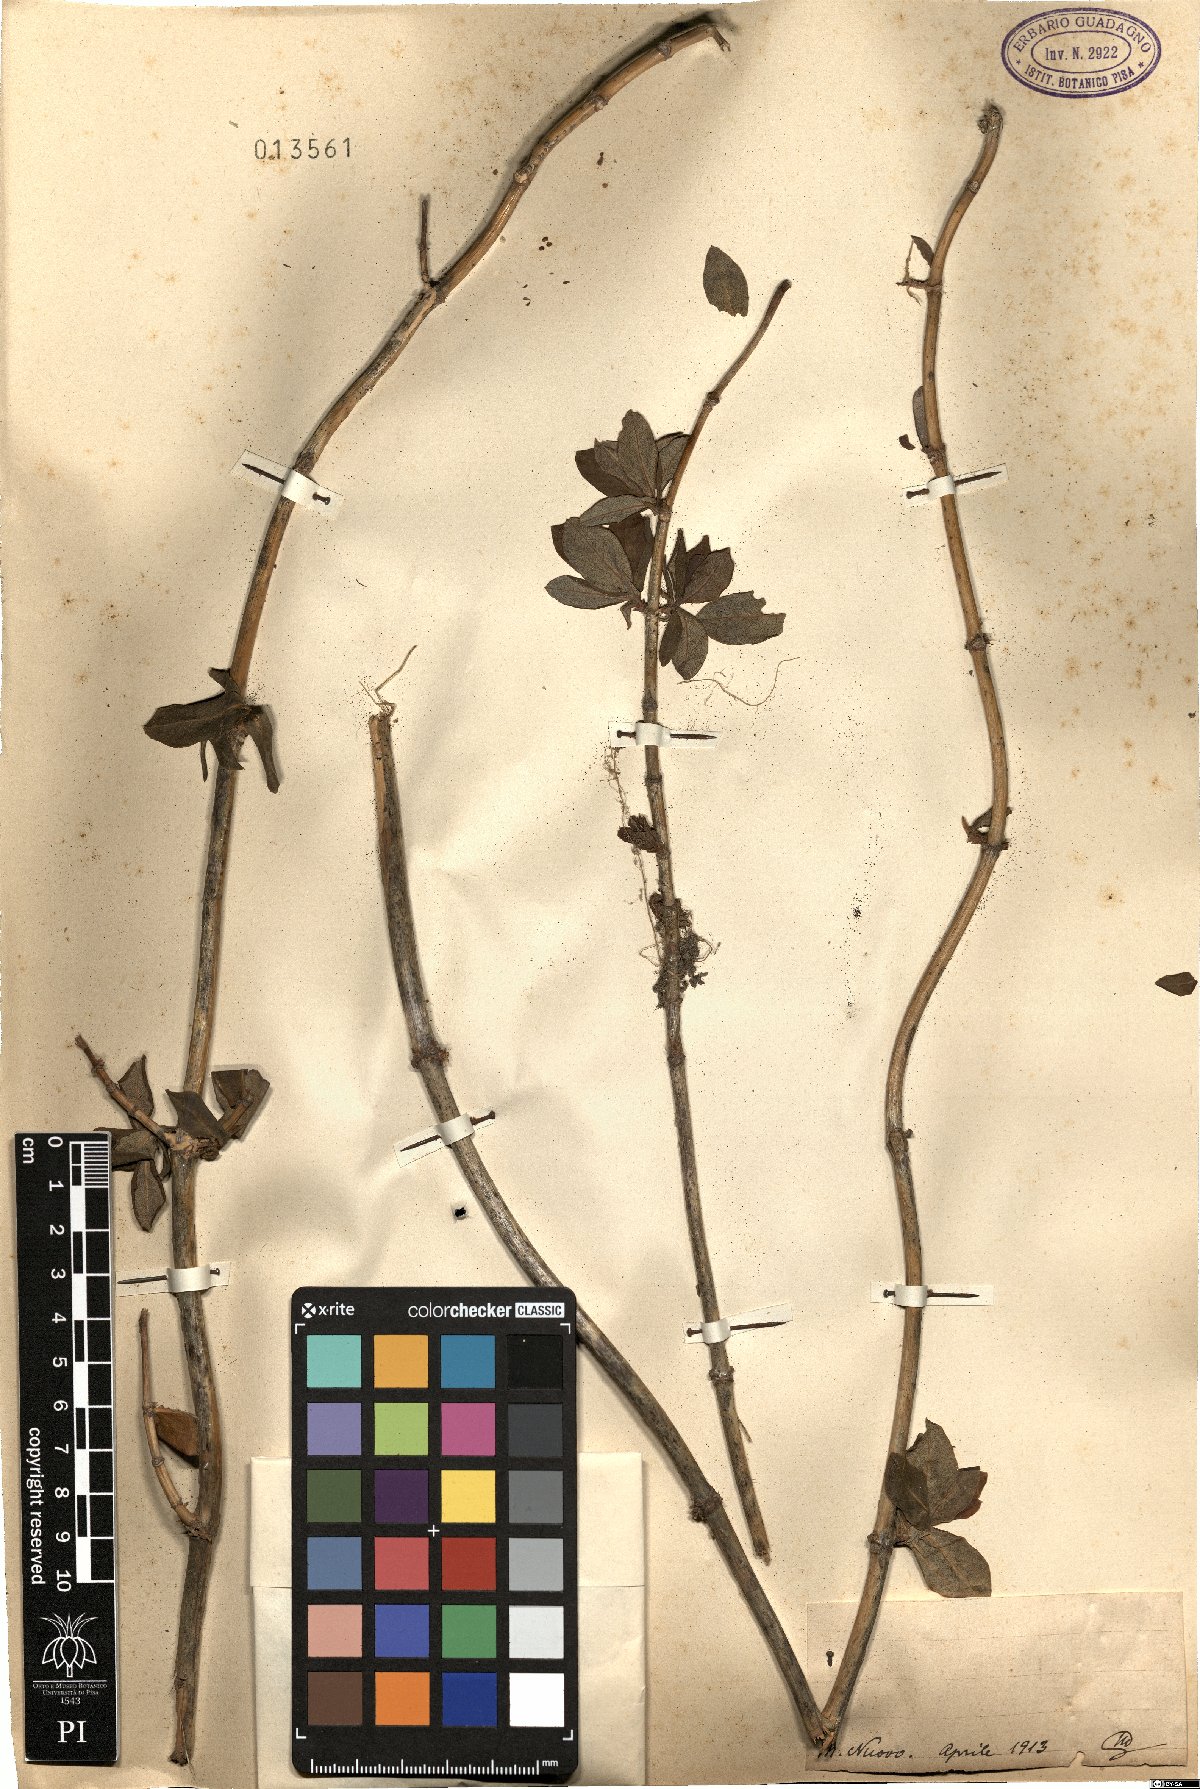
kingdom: Plantae
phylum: Tracheophyta
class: Magnoliopsida
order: Dipsacales
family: Caprifoliaceae
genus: Lonicera
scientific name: Lonicera
